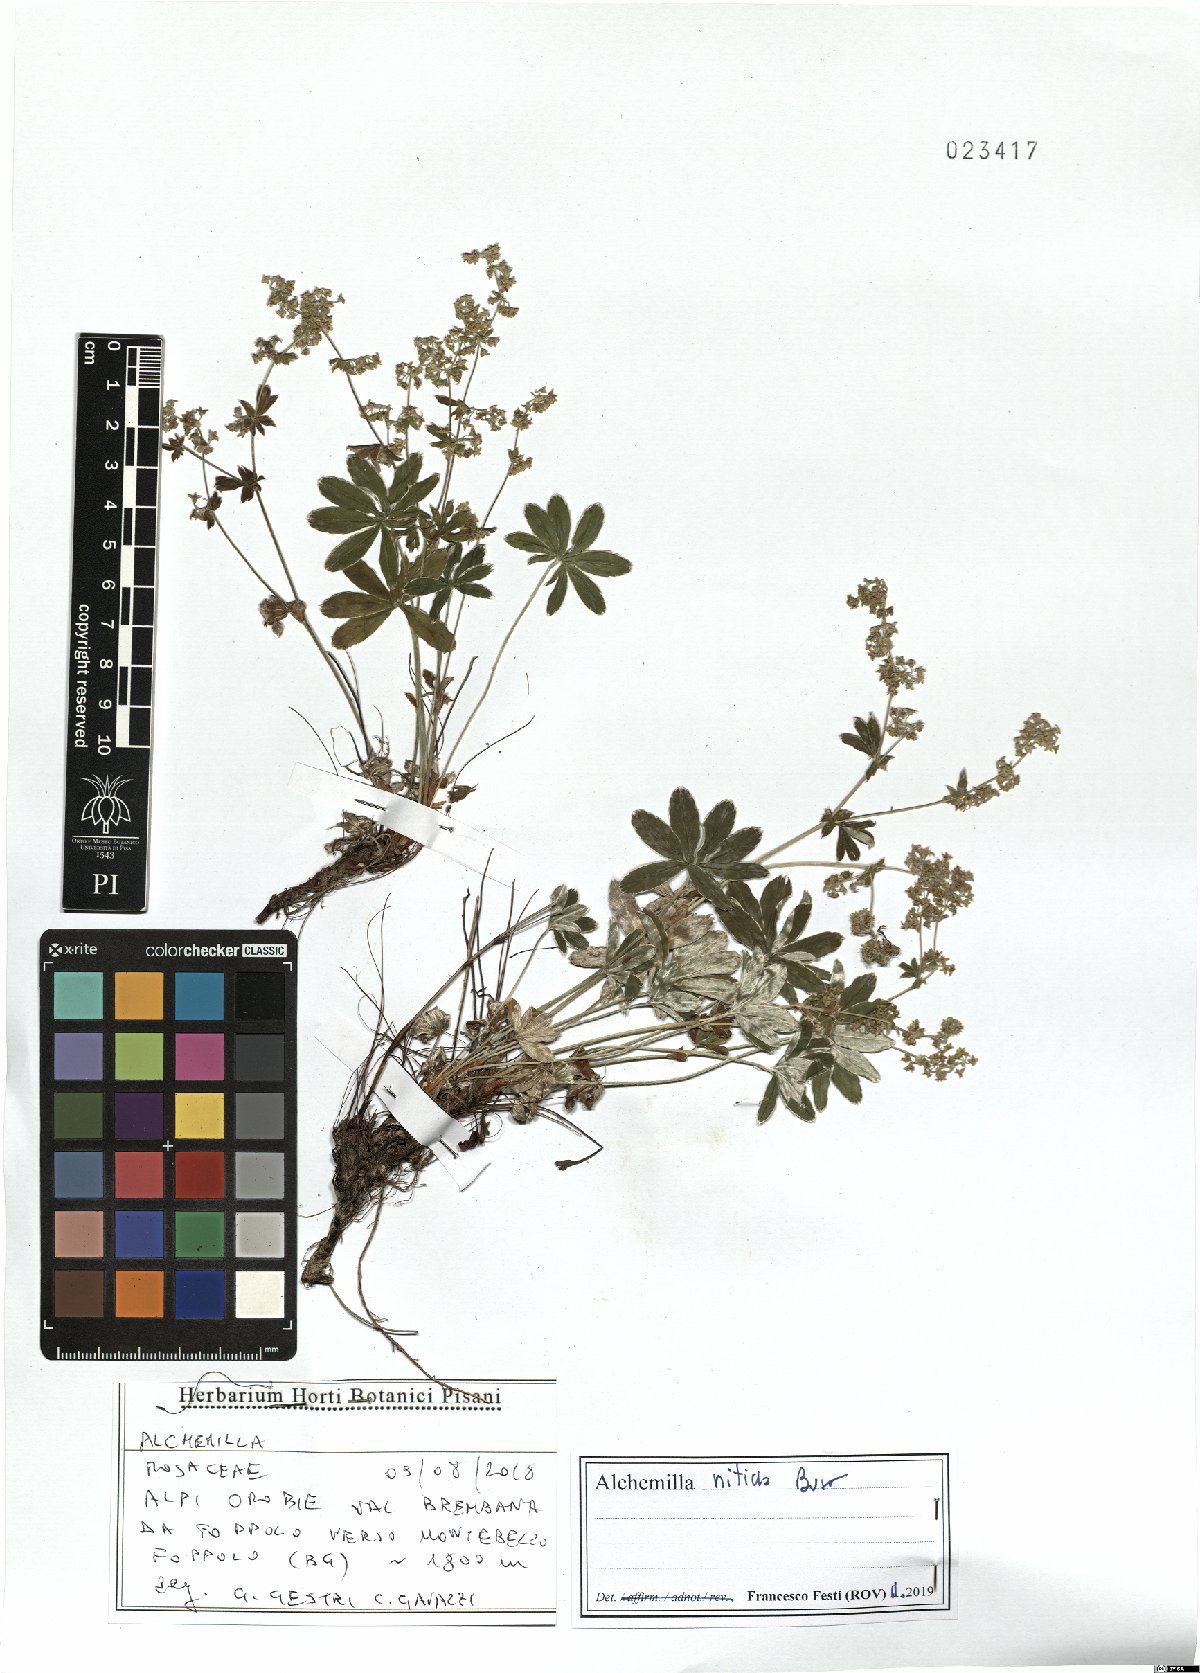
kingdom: Plantae
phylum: Tracheophyta
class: Magnoliopsida
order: Rosales
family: Rosaceae
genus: Alchemilla
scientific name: Alchemilla nitida
